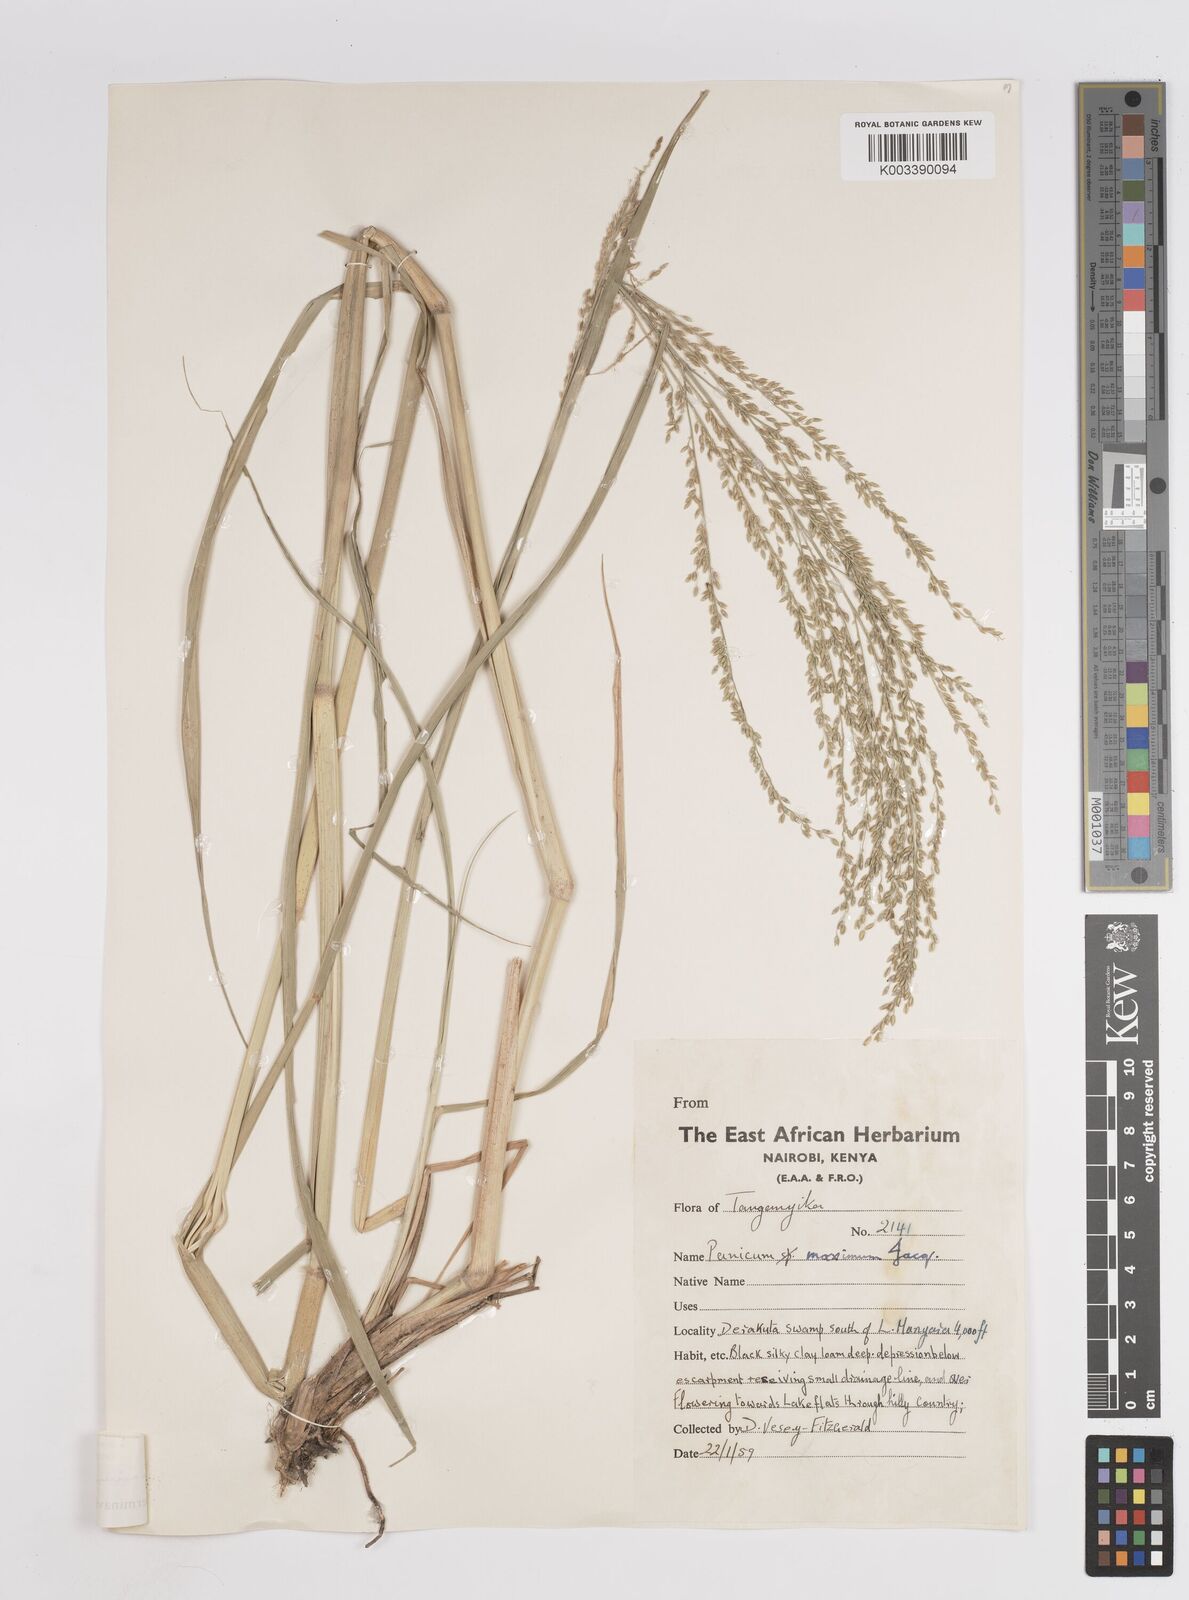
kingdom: Plantae
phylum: Tracheophyta
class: Liliopsida
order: Poales
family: Poaceae
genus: Megathyrsus
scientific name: Megathyrsus infestus
